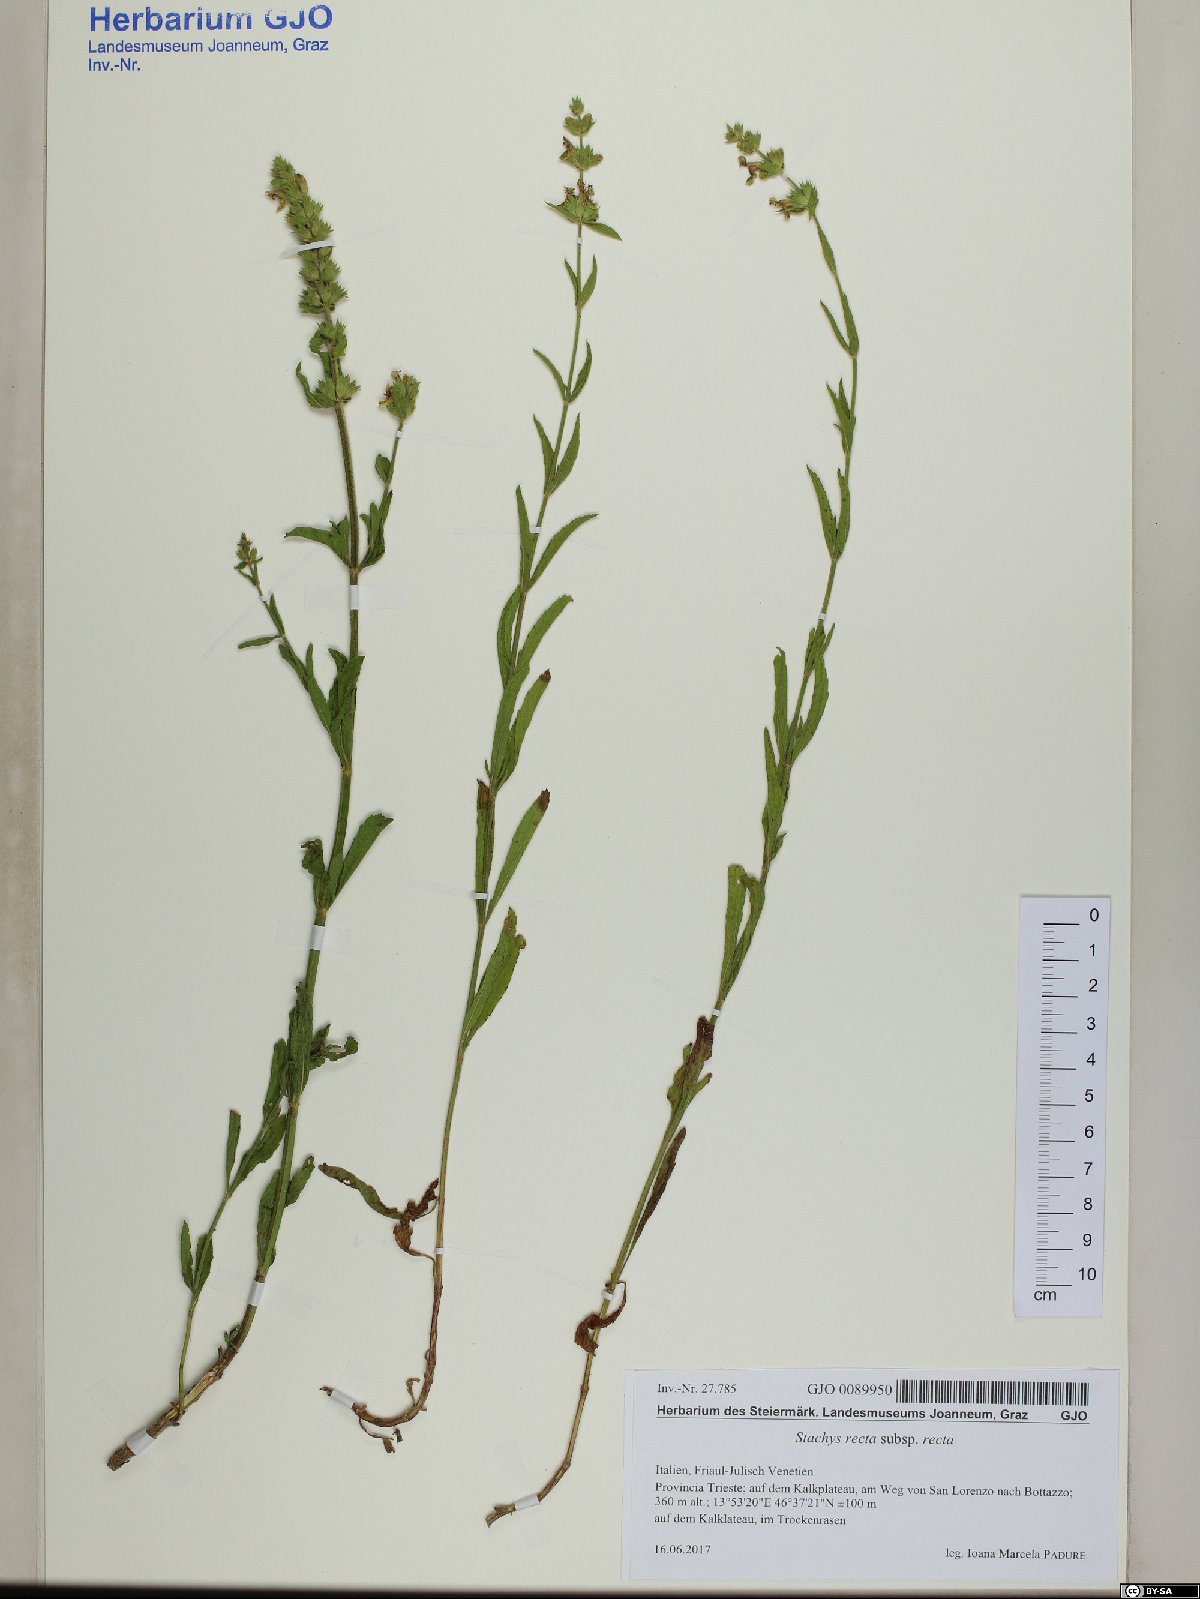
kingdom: Plantae
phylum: Tracheophyta
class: Magnoliopsida
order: Lamiales
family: Lamiaceae
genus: Stachys
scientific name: Stachys recta
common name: Perennial yellow-woundwort
